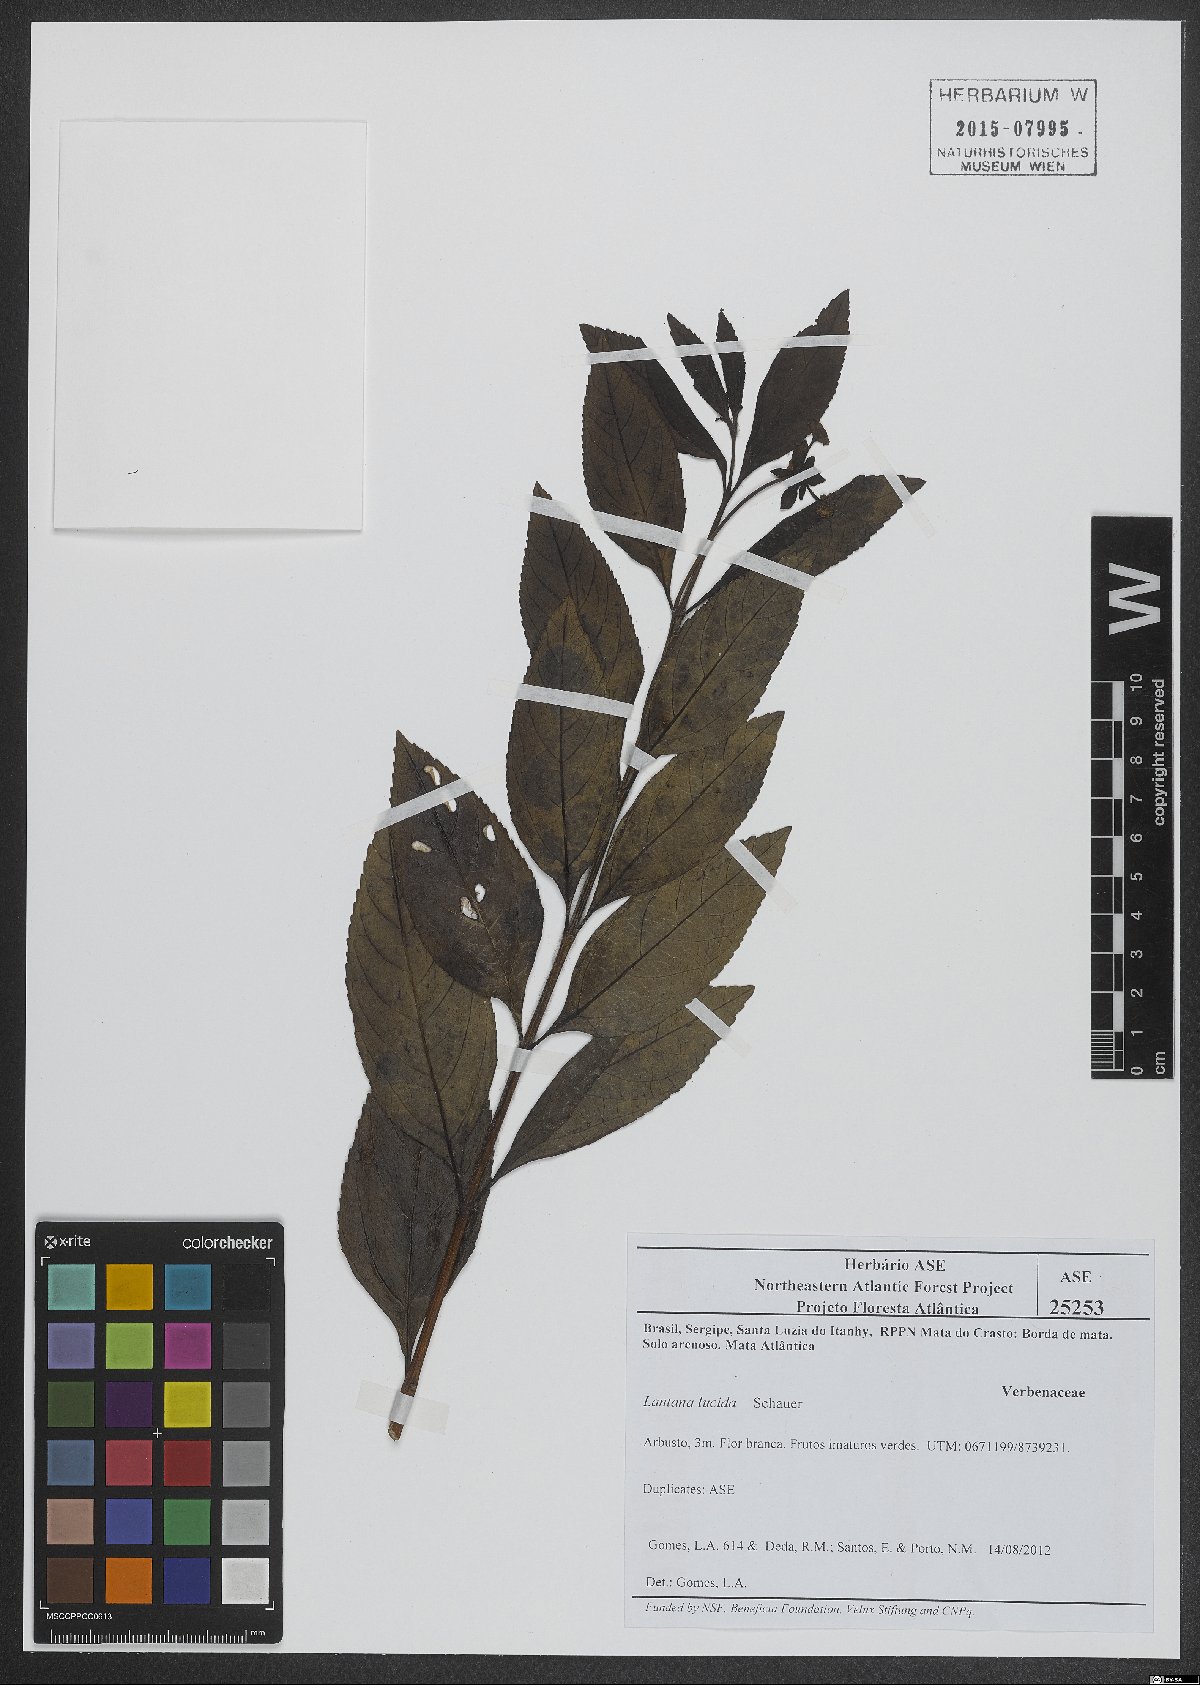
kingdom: Plantae
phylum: Tracheophyta
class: Magnoliopsida
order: Lamiales
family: Verbenaceae
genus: Lantana
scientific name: Lantana lundiana
